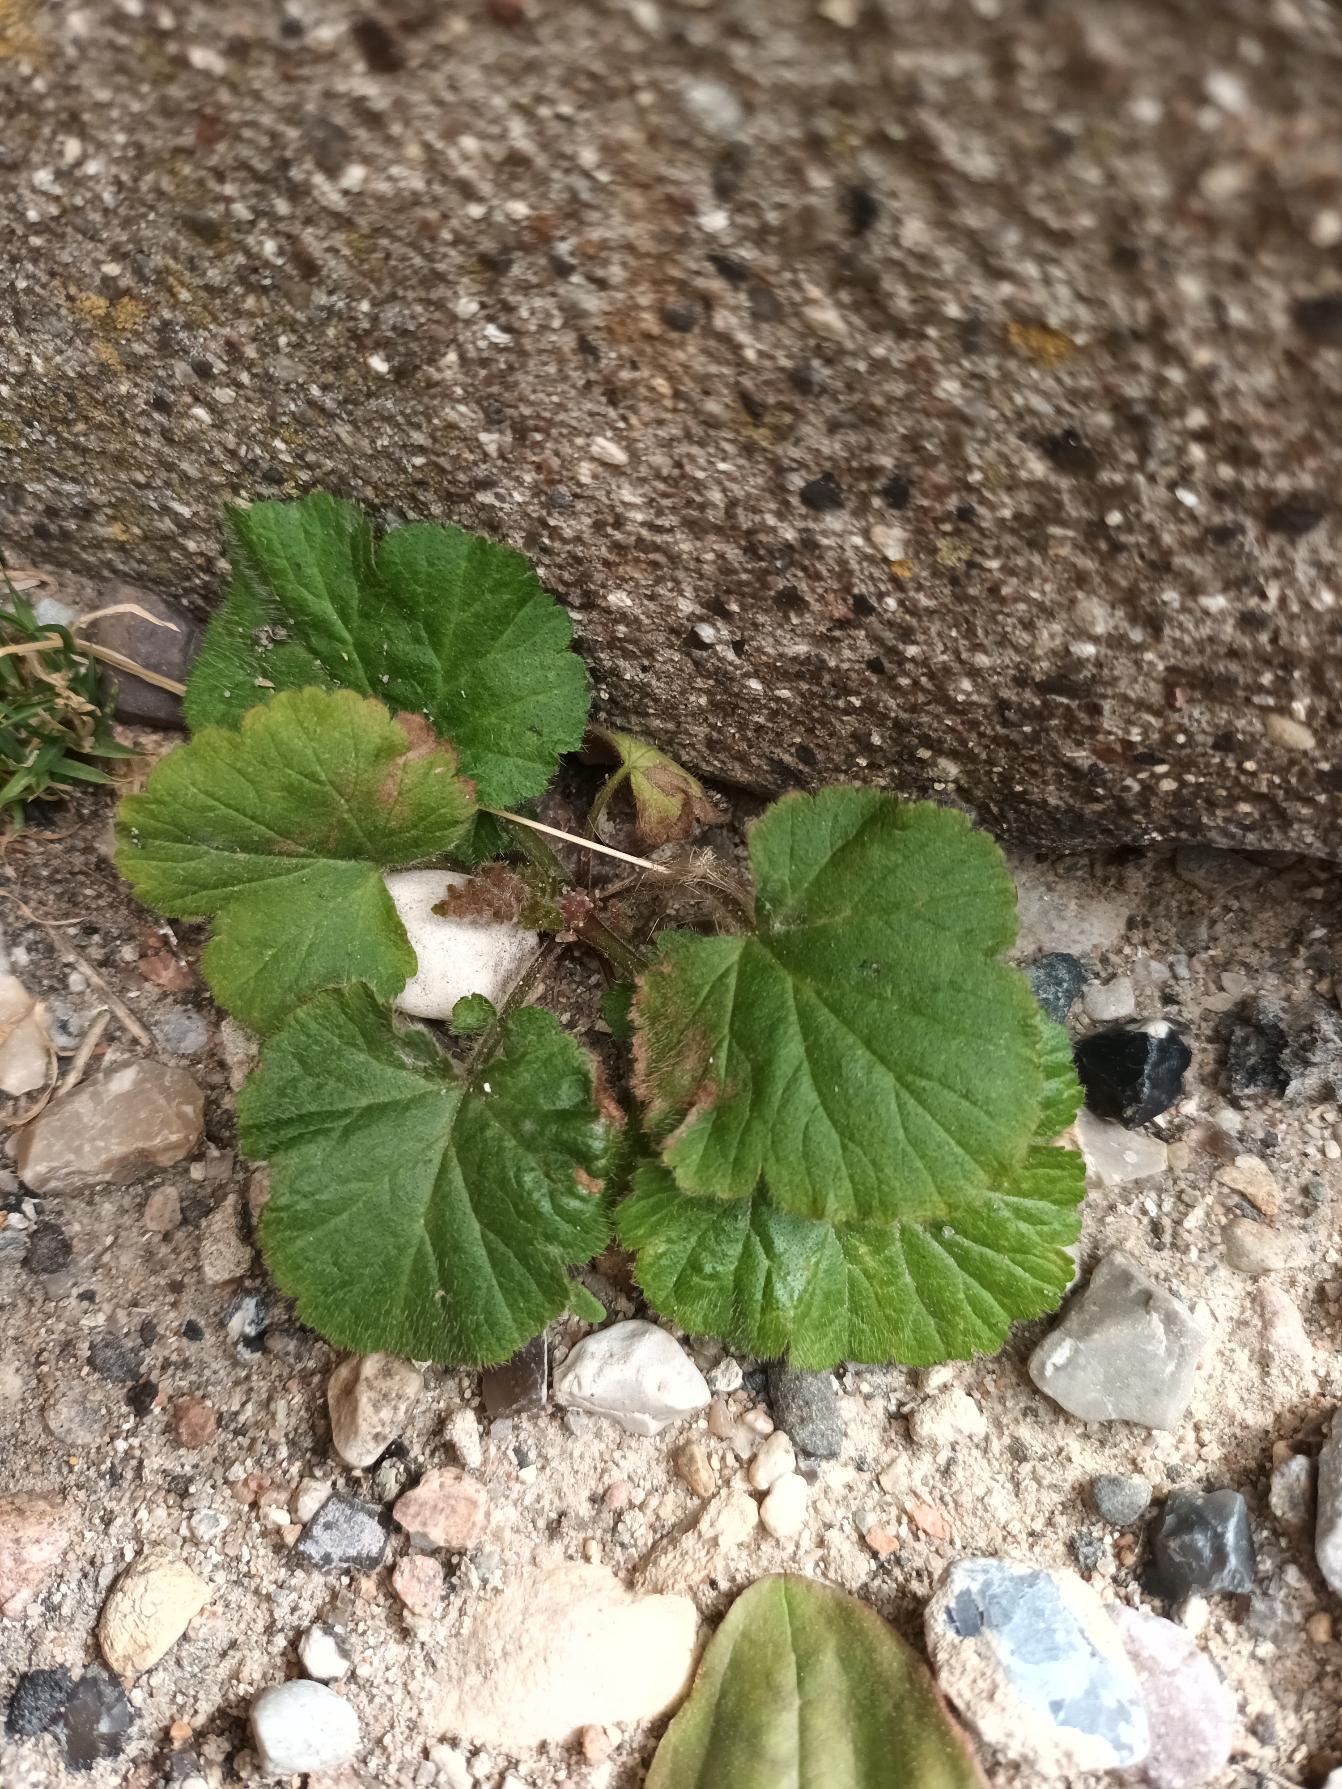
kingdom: Plantae
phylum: Tracheophyta
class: Magnoliopsida
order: Rosales
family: Rosaceae
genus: Geum
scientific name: Geum urbanum
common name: Feber-nellikerod
